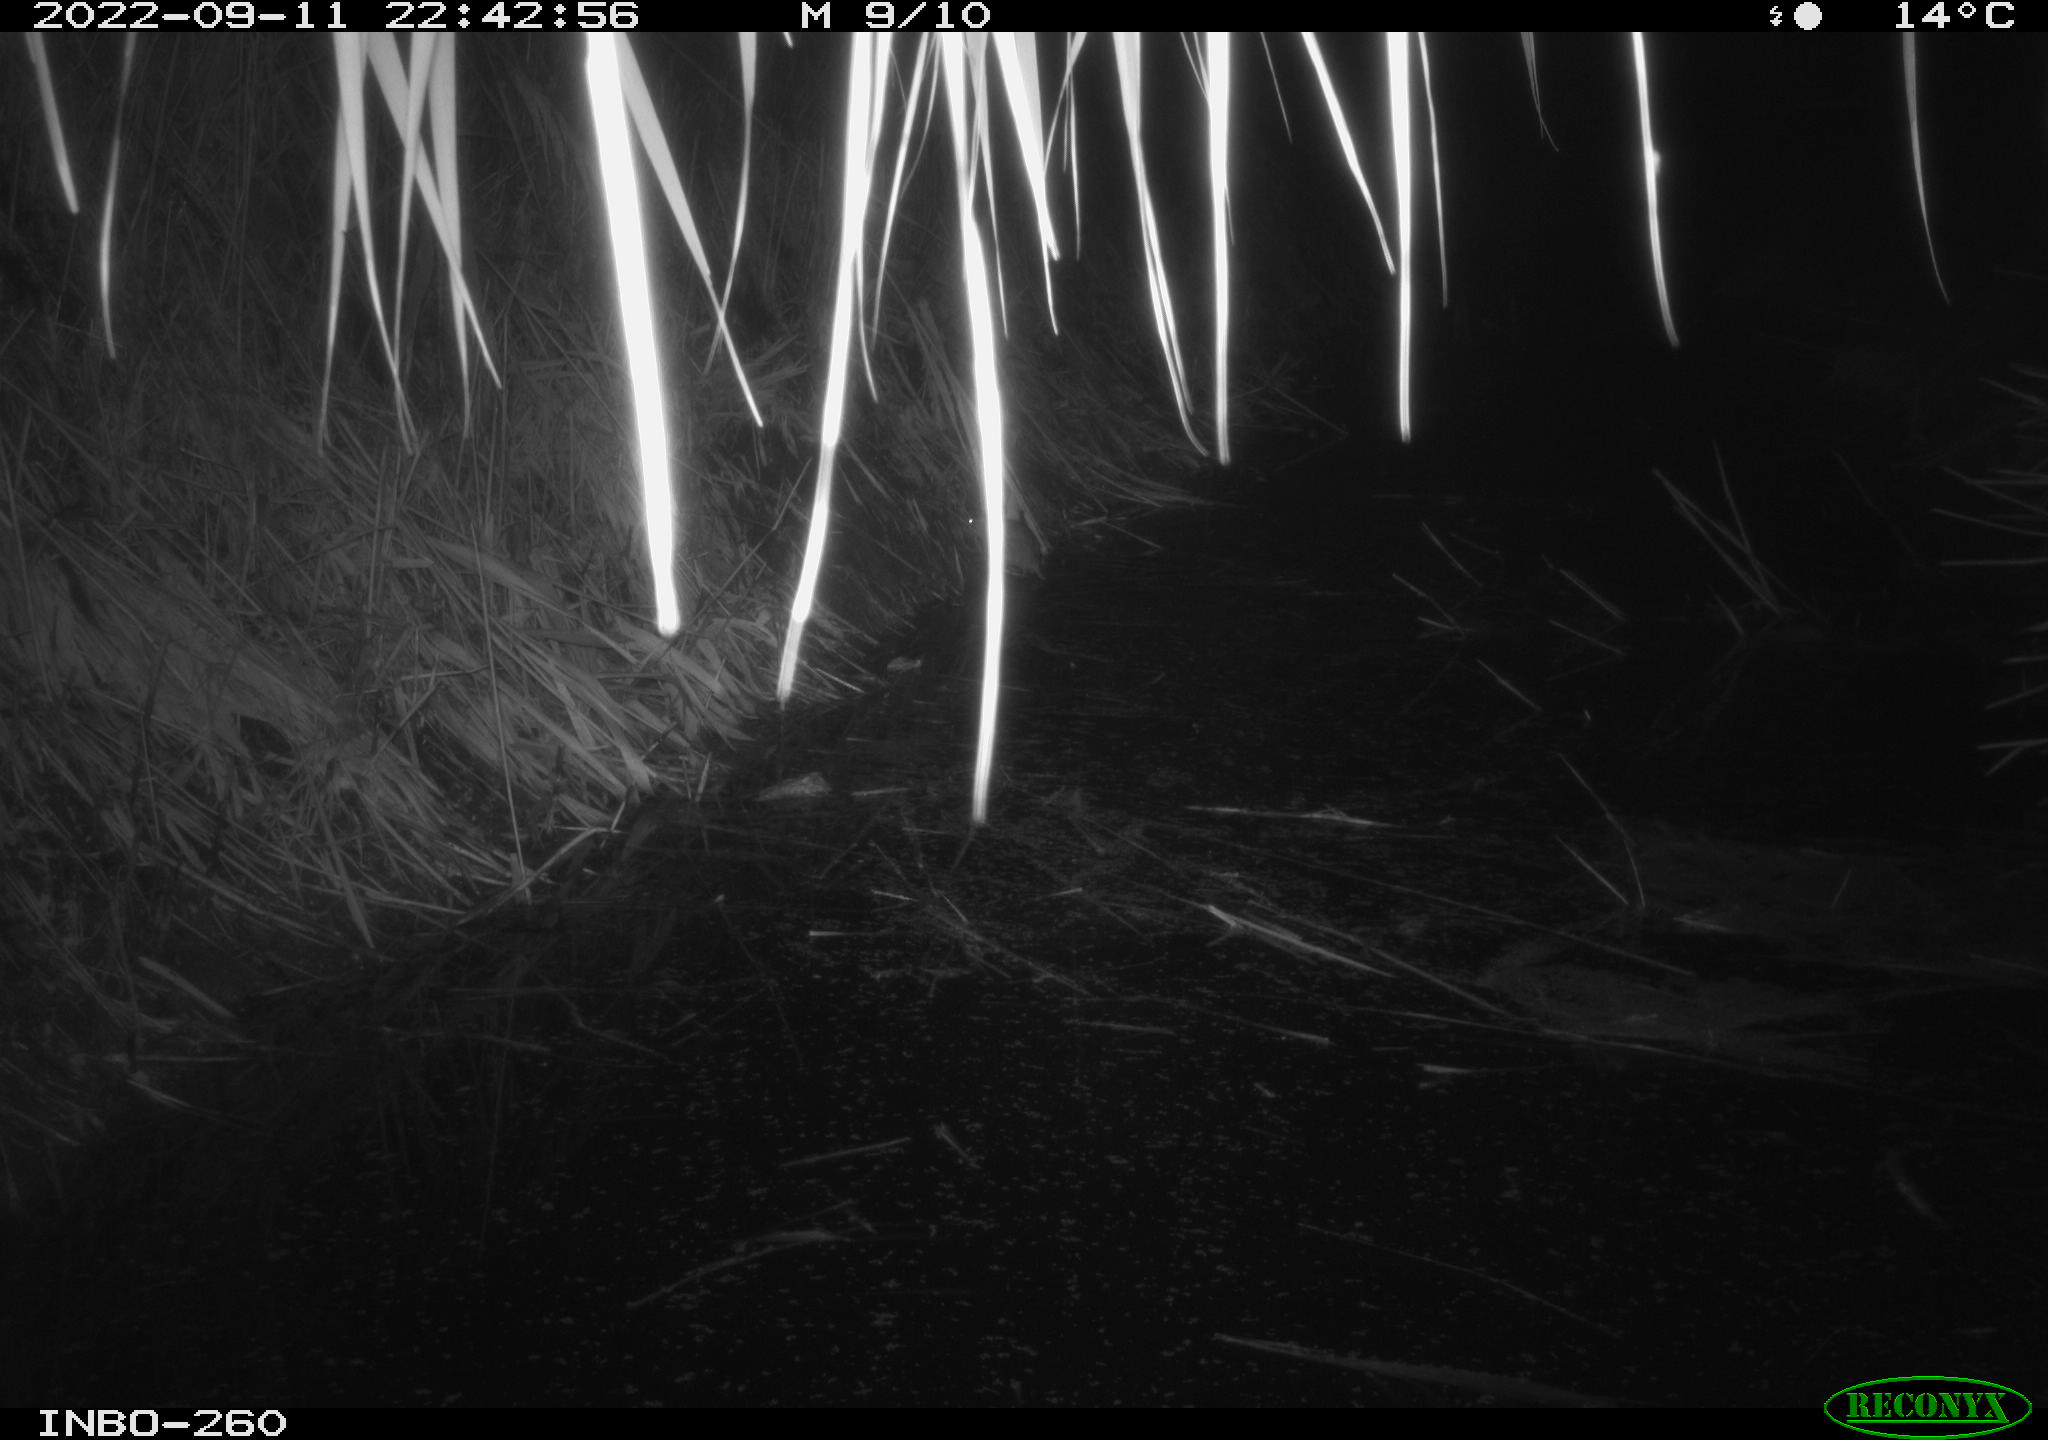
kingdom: Animalia
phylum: Chordata
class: Mammalia
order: Rodentia
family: Muridae
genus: Rattus
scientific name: Rattus norvegicus
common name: Brown rat
